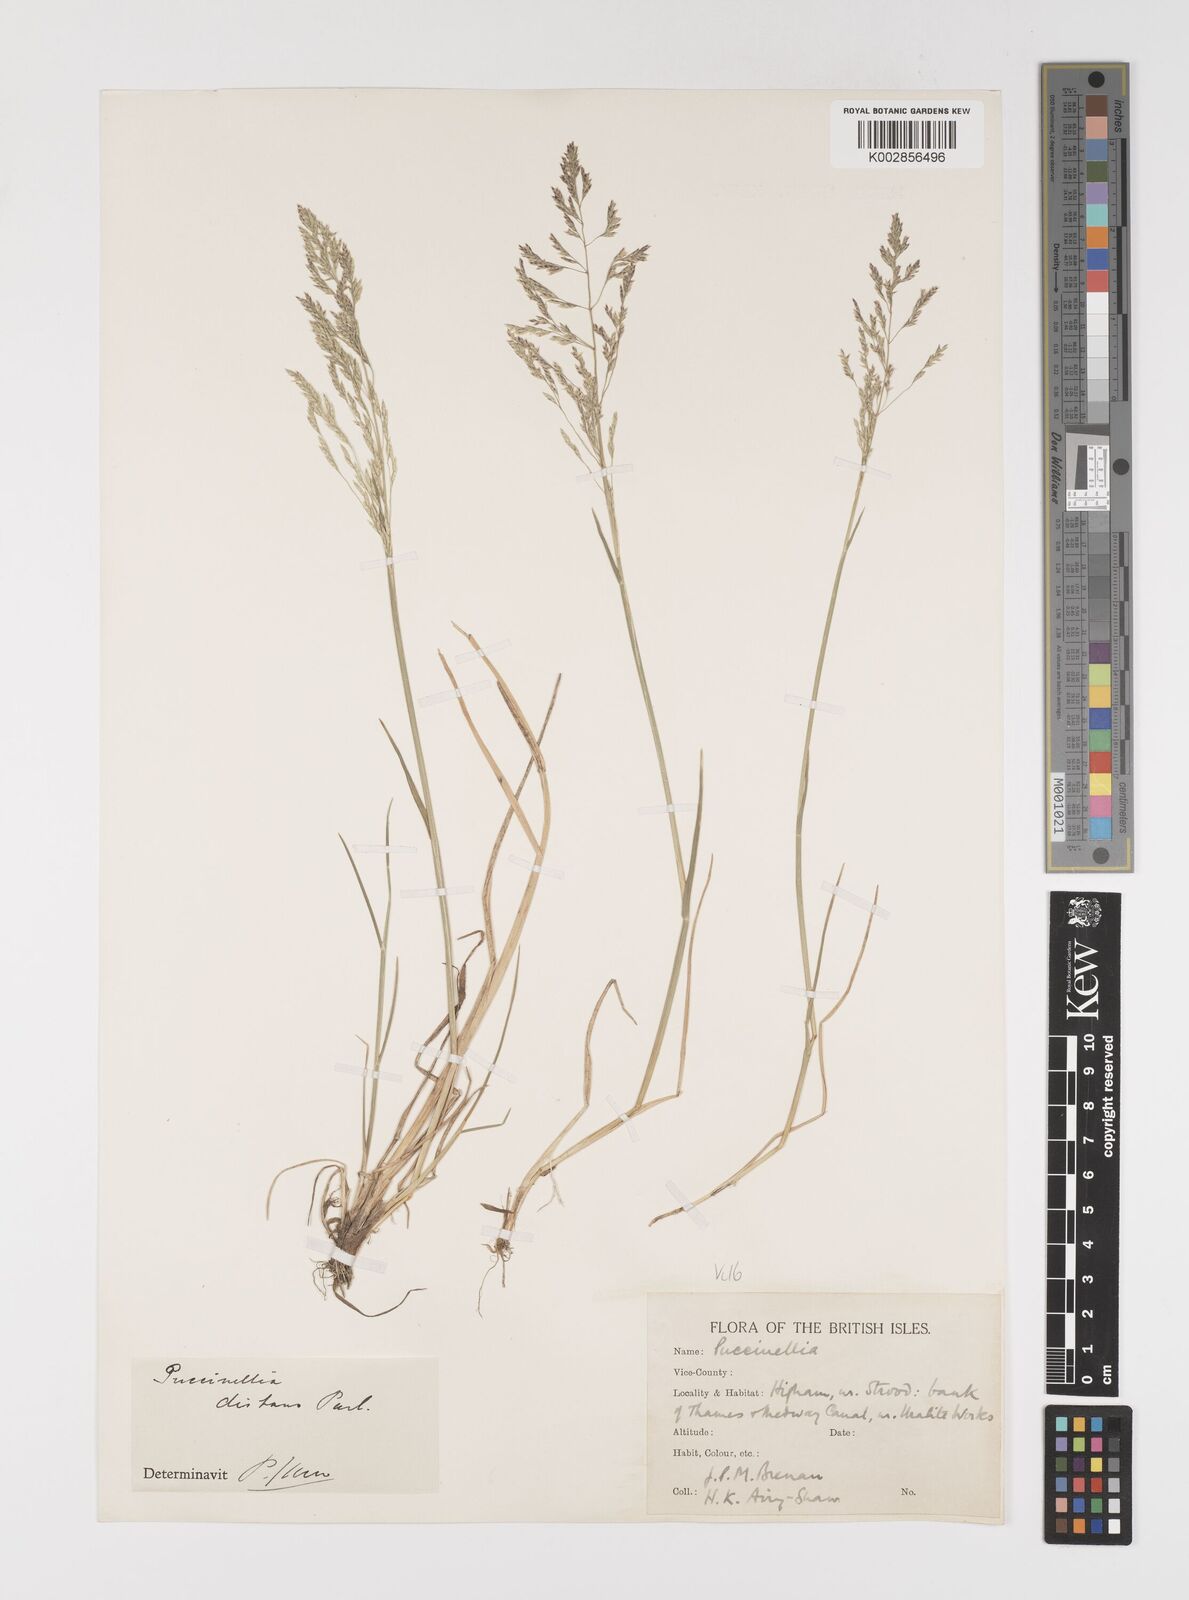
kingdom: Plantae
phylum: Tracheophyta
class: Liliopsida
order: Poales
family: Poaceae
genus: Puccinellia
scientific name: Puccinellia distans
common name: Weeping alkaligrass
